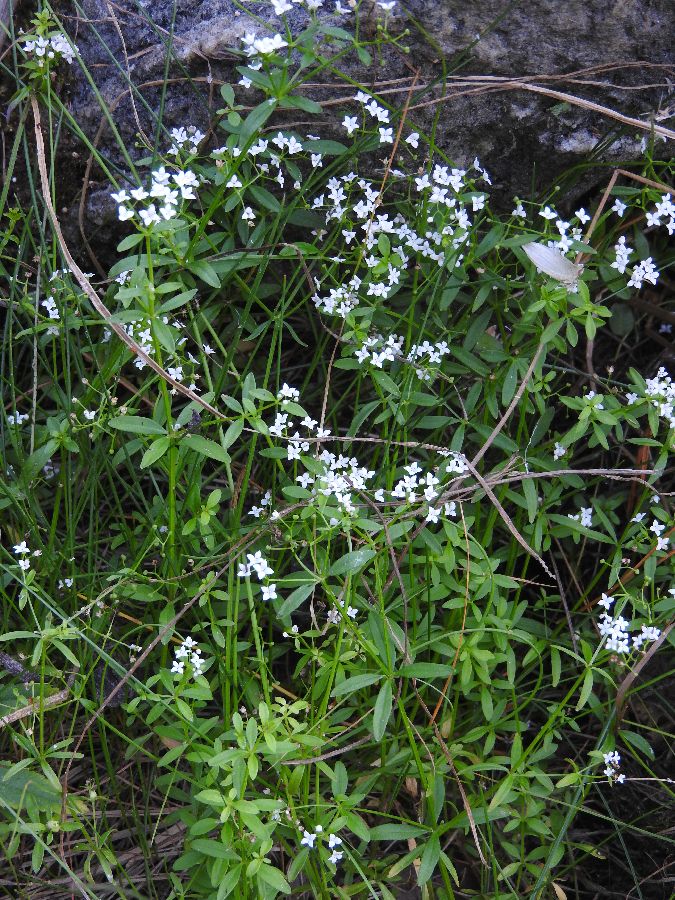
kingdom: Plantae
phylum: Tracheophyta
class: Magnoliopsida
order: Gentianales
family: Rubiaceae
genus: Galium
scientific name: Galium palustre
